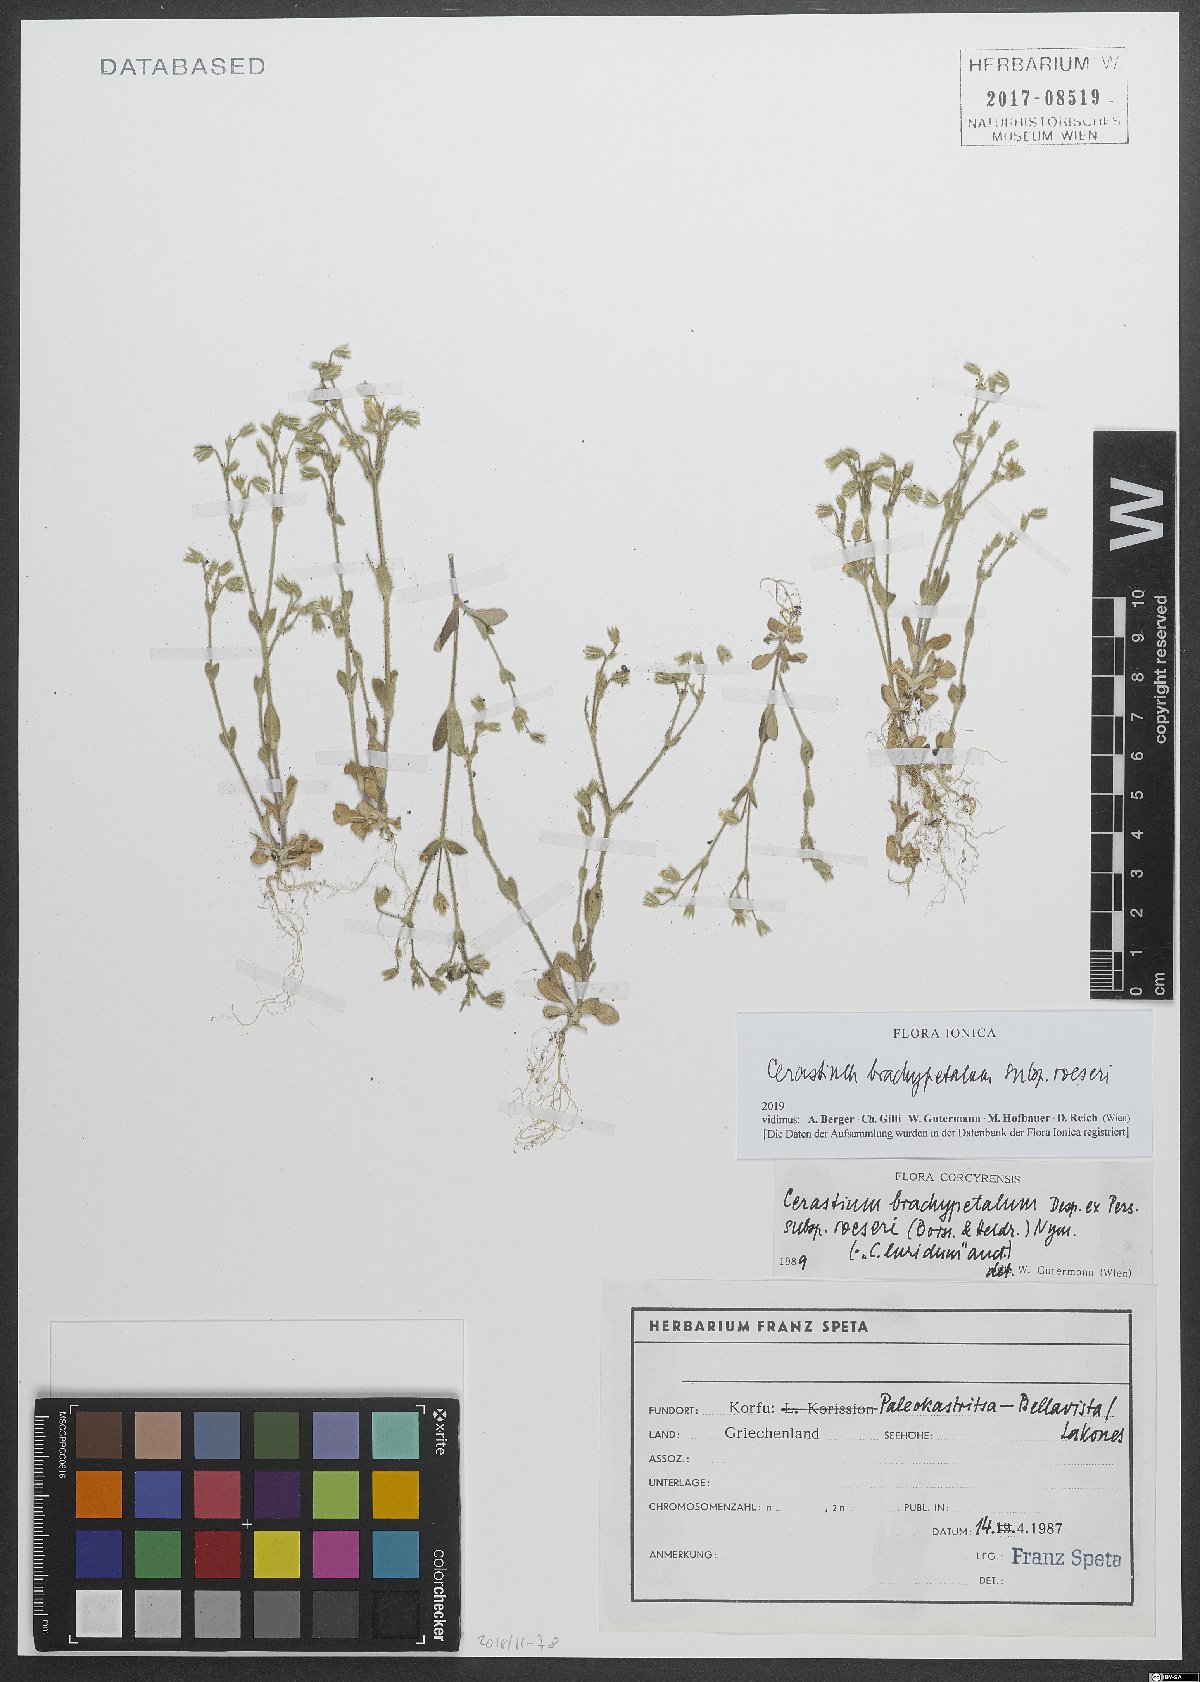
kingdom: Plantae
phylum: Tracheophyta
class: Magnoliopsida
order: Caryophyllales
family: Caryophyllaceae
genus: Cerastium
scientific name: Cerastium brachypetalum
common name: Grey mouse-ear
